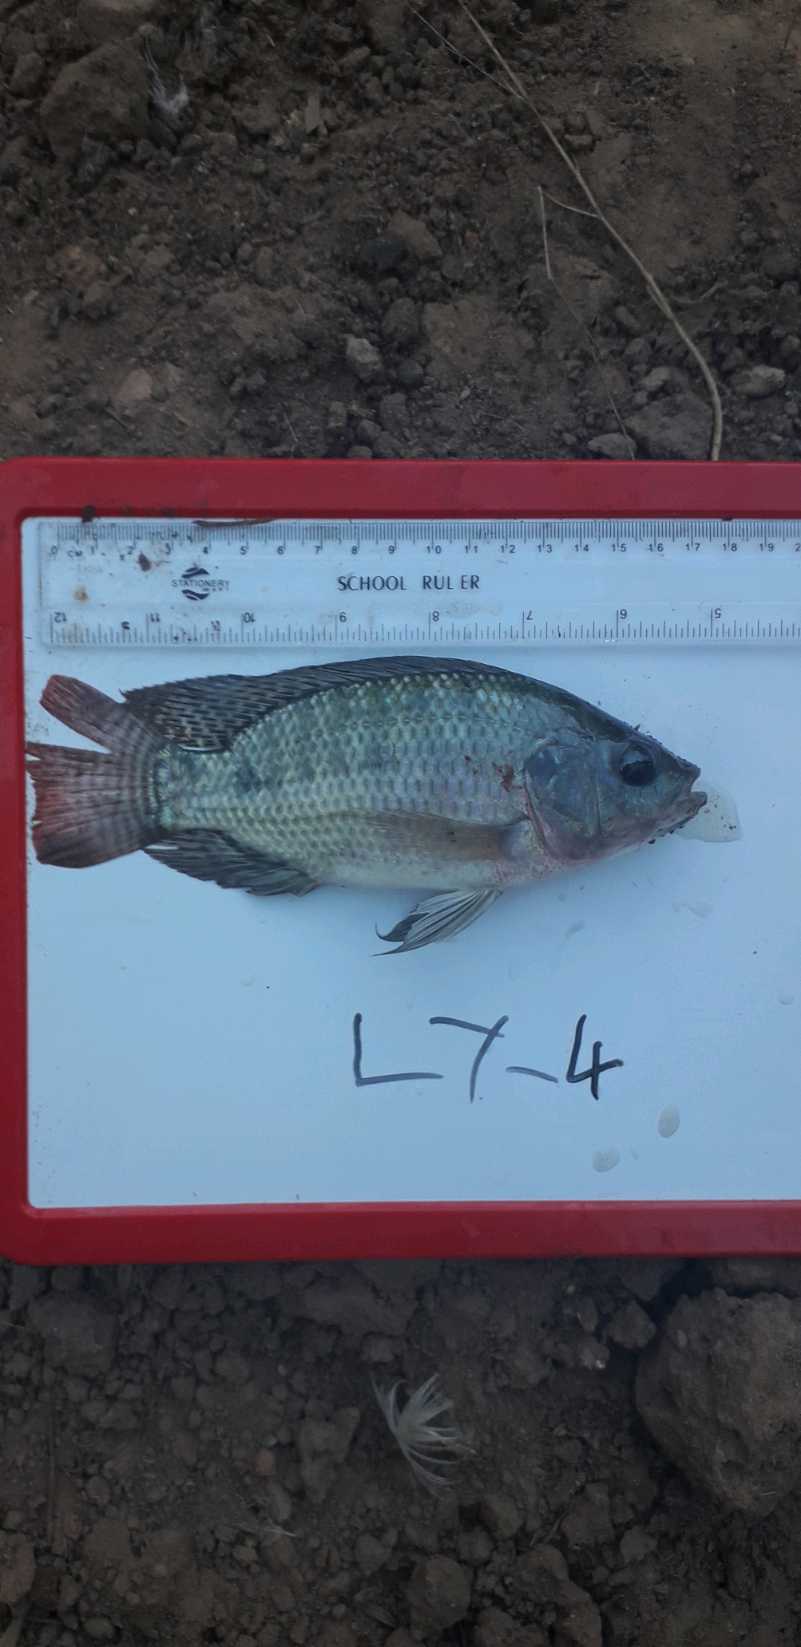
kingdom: Animalia
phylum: Chordata
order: Perciformes
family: Cichlidae
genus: Oreochromis
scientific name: Oreochromis niloticus
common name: Nile tilapia
